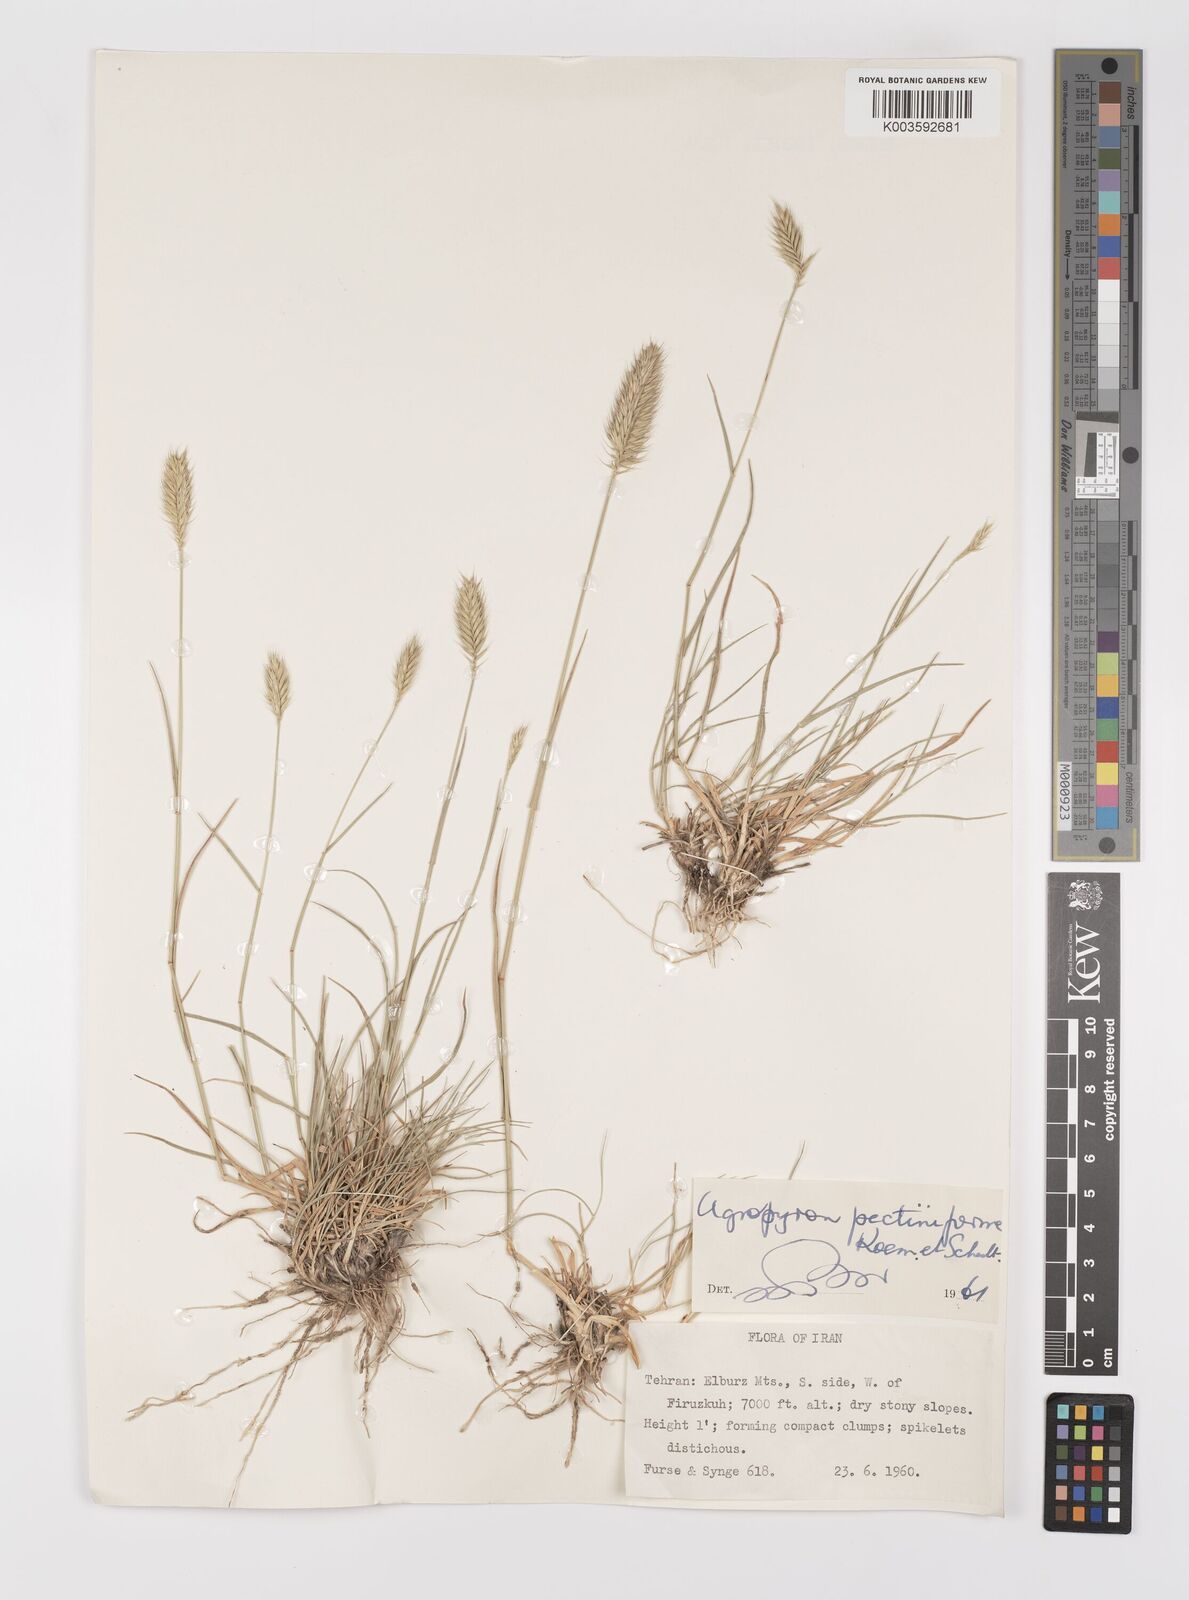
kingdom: Plantae
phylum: Tracheophyta
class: Liliopsida
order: Poales
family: Poaceae
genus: Agropyron
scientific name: Agropyron
